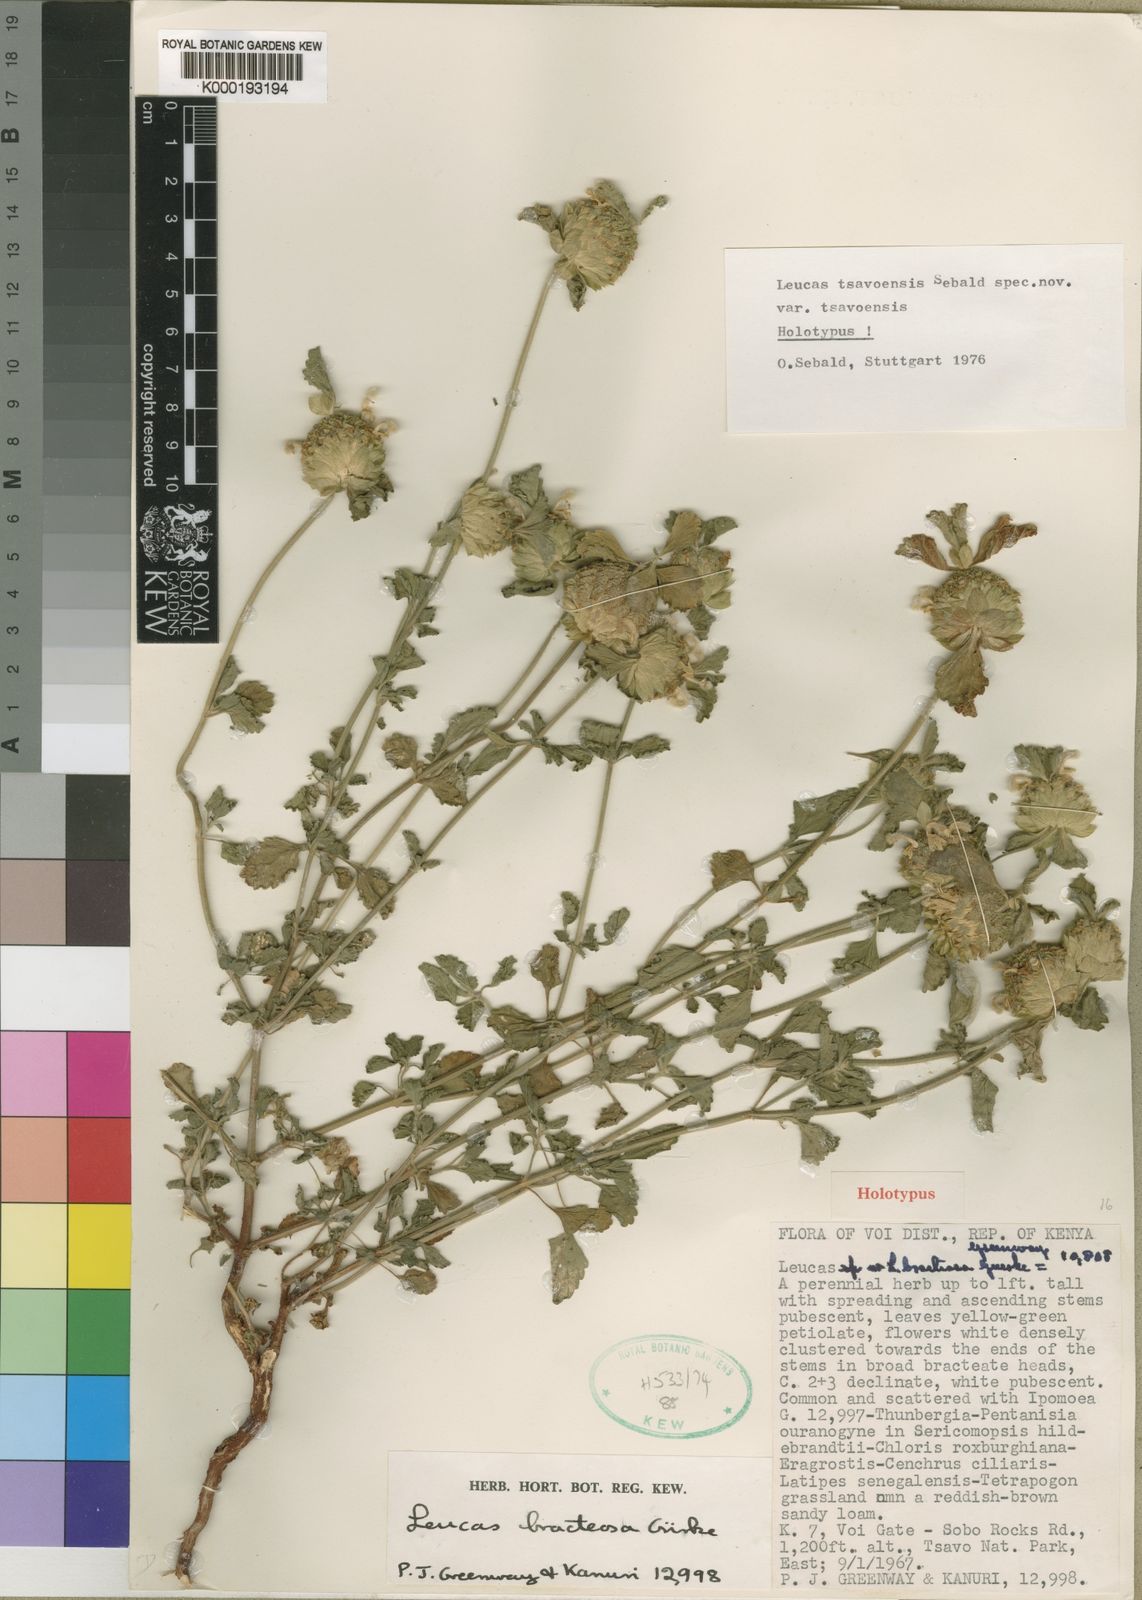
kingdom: Plantae
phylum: Tracheophyta
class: Magnoliopsida
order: Lamiales
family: Lamiaceae
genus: Leucas
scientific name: Leucas tsavoensis
